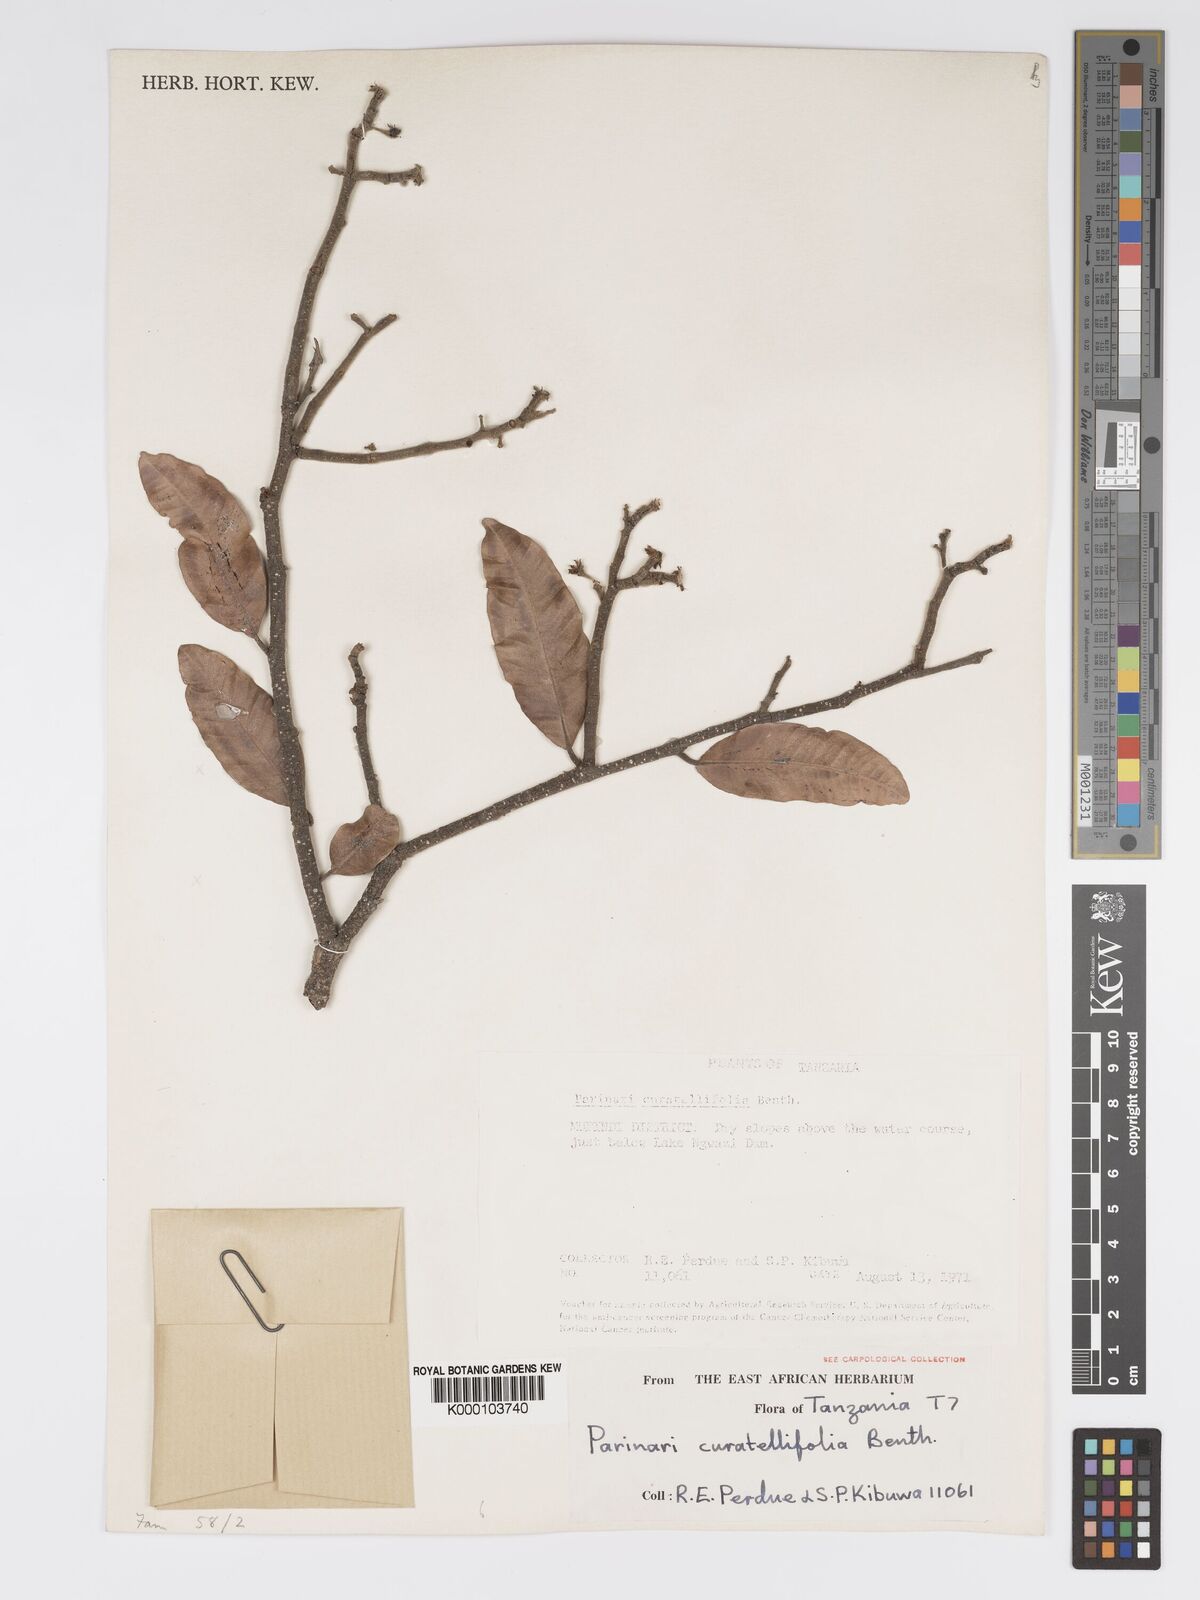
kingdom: Plantae
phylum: Tracheophyta
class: Magnoliopsida
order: Malpighiales
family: Chrysobalanaceae
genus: Parinari
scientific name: Parinari curatellifolia
